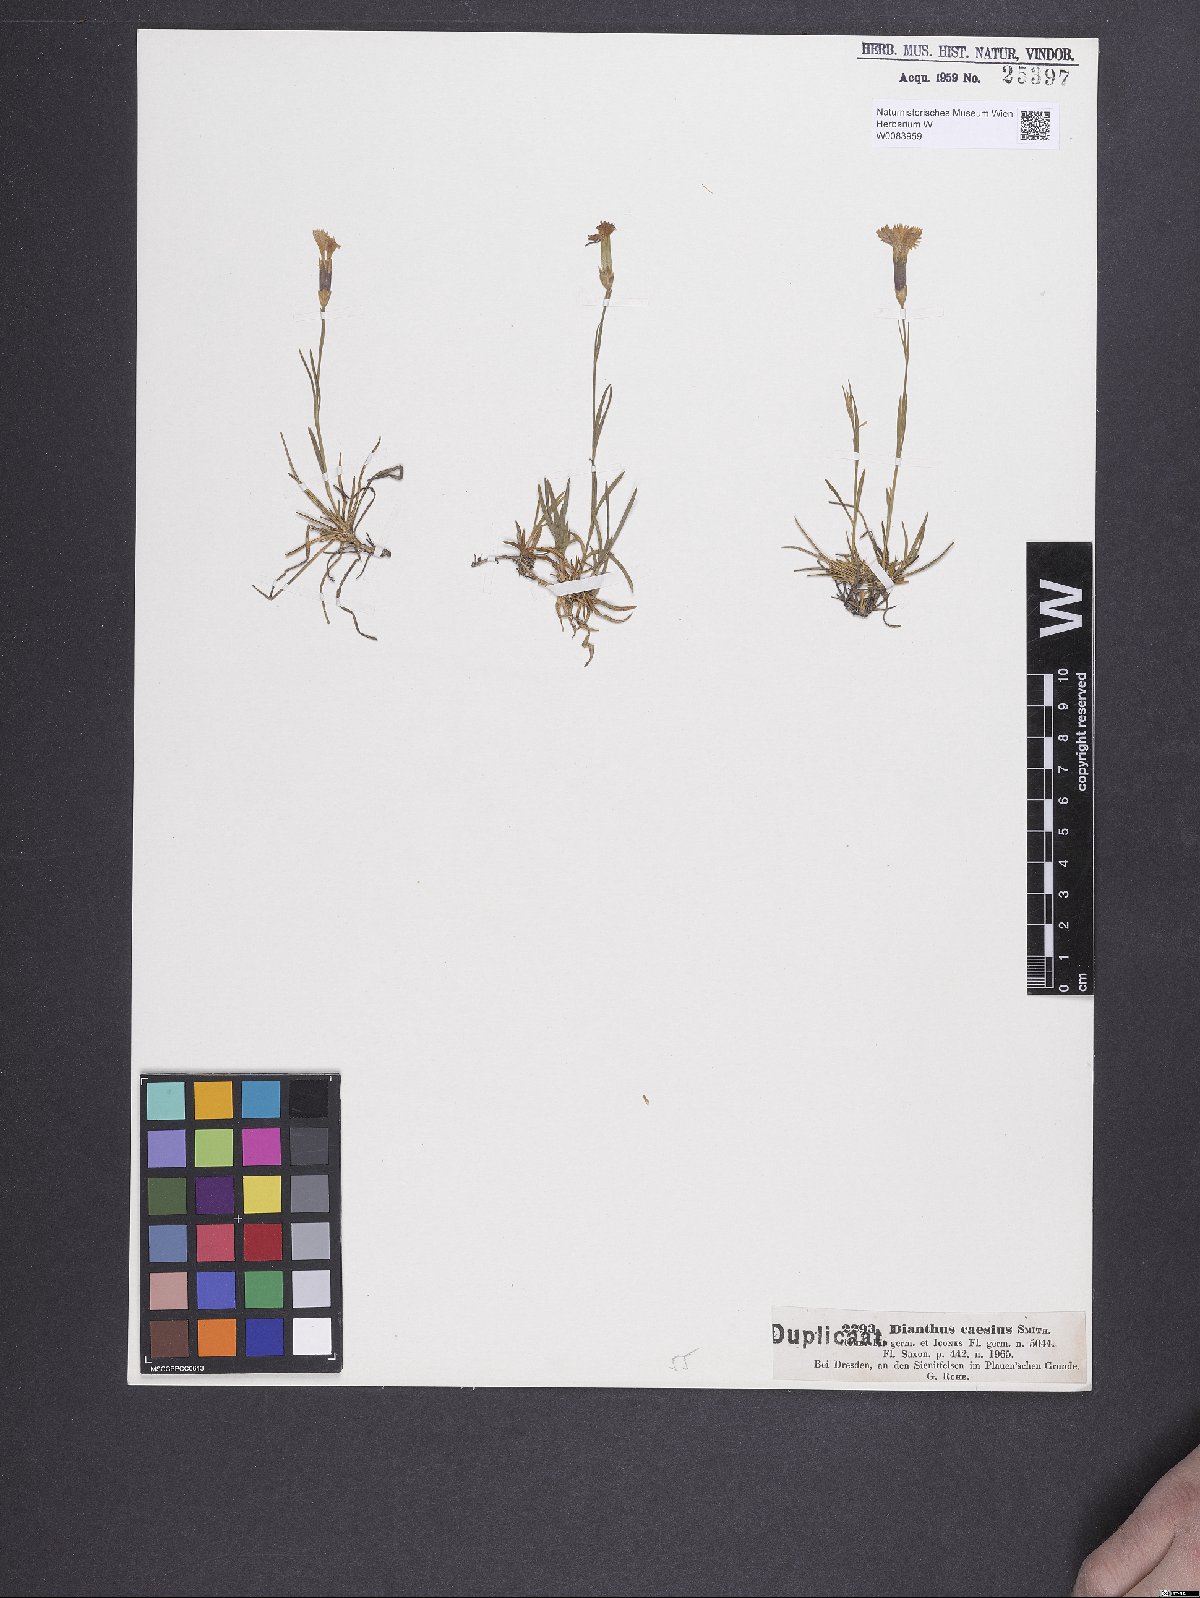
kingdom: Plantae
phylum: Tracheophyta
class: Magnoliopsida
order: Caryophyllales
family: Caryophyllaceae
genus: Dianthus
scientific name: Dianthus gratianopolitanus
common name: Cheddar pink
